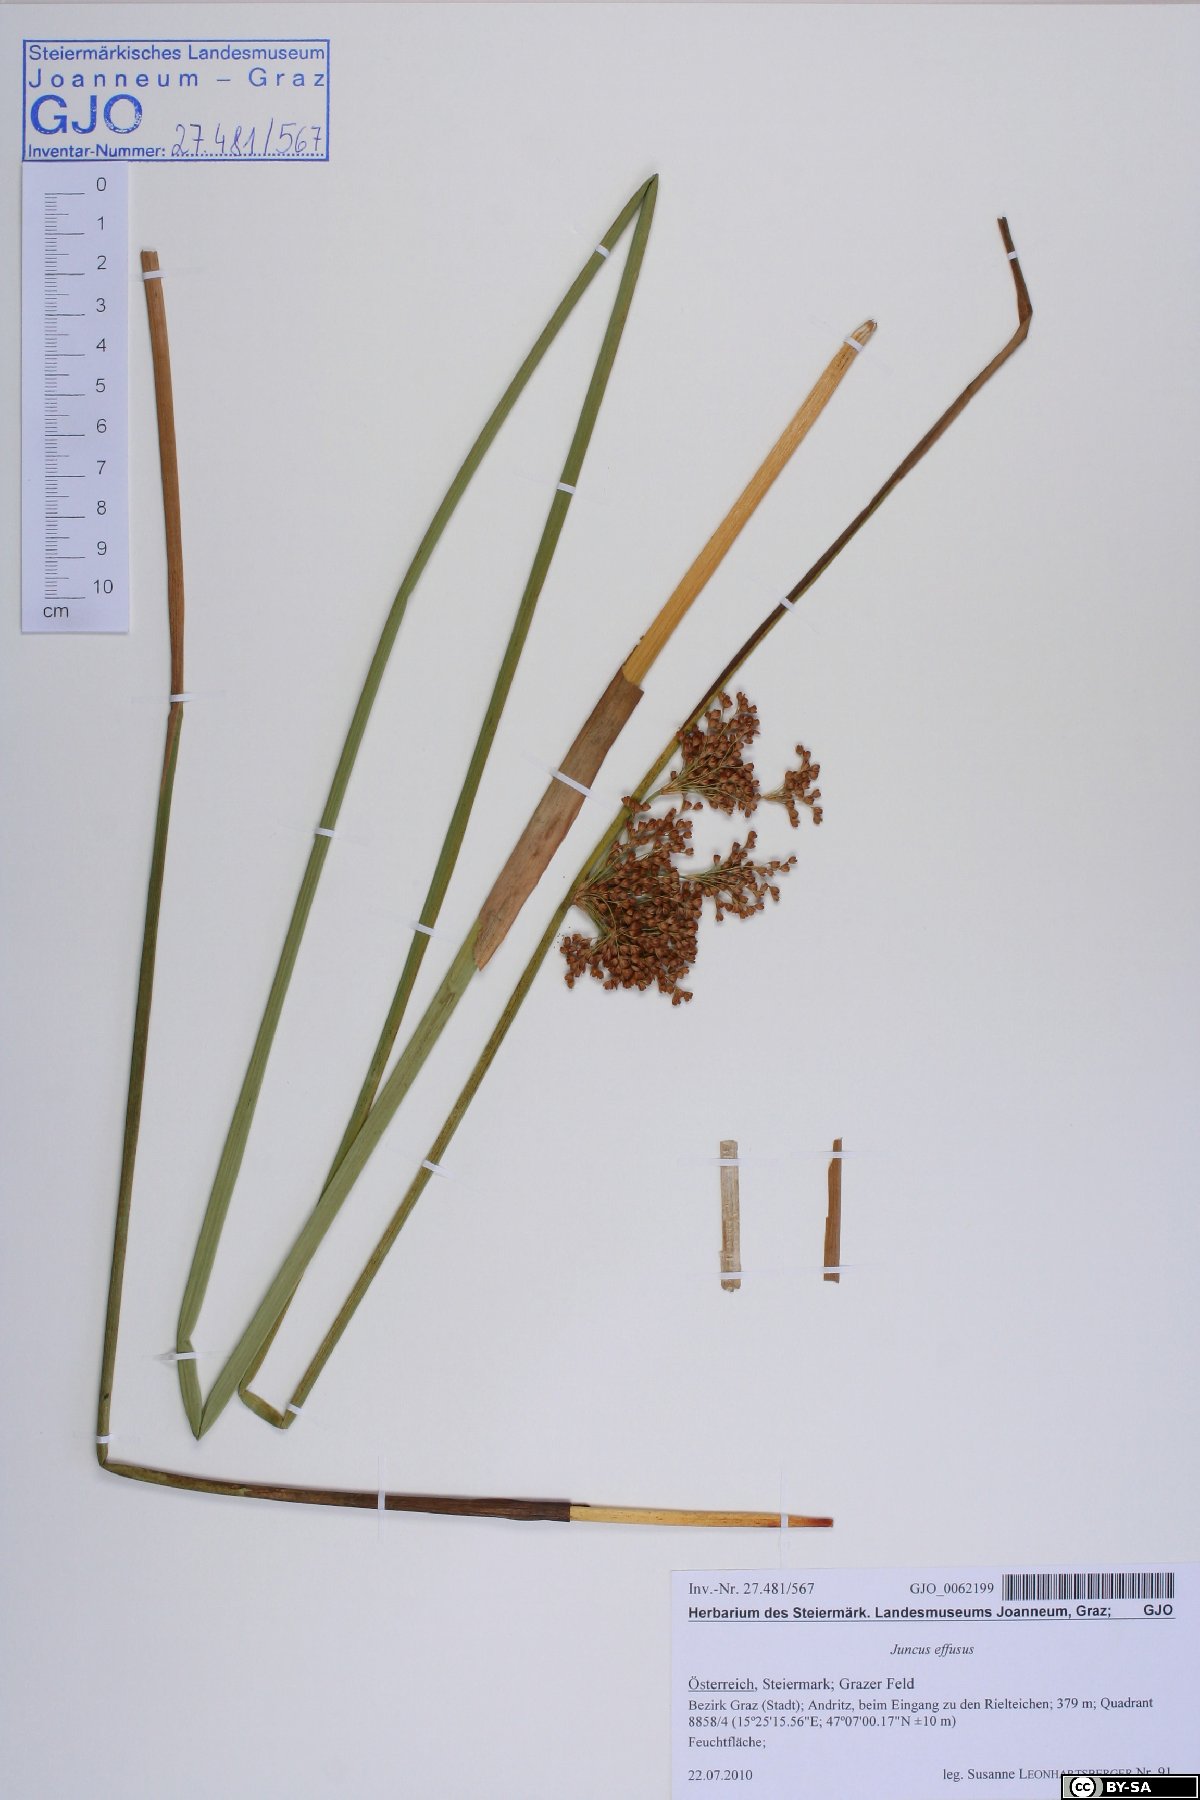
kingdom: Plantae
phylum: Tracheophyta
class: Liliopsida
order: Poales
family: Juncaceae
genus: Juncus
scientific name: Juncus effusus
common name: Soft rush
